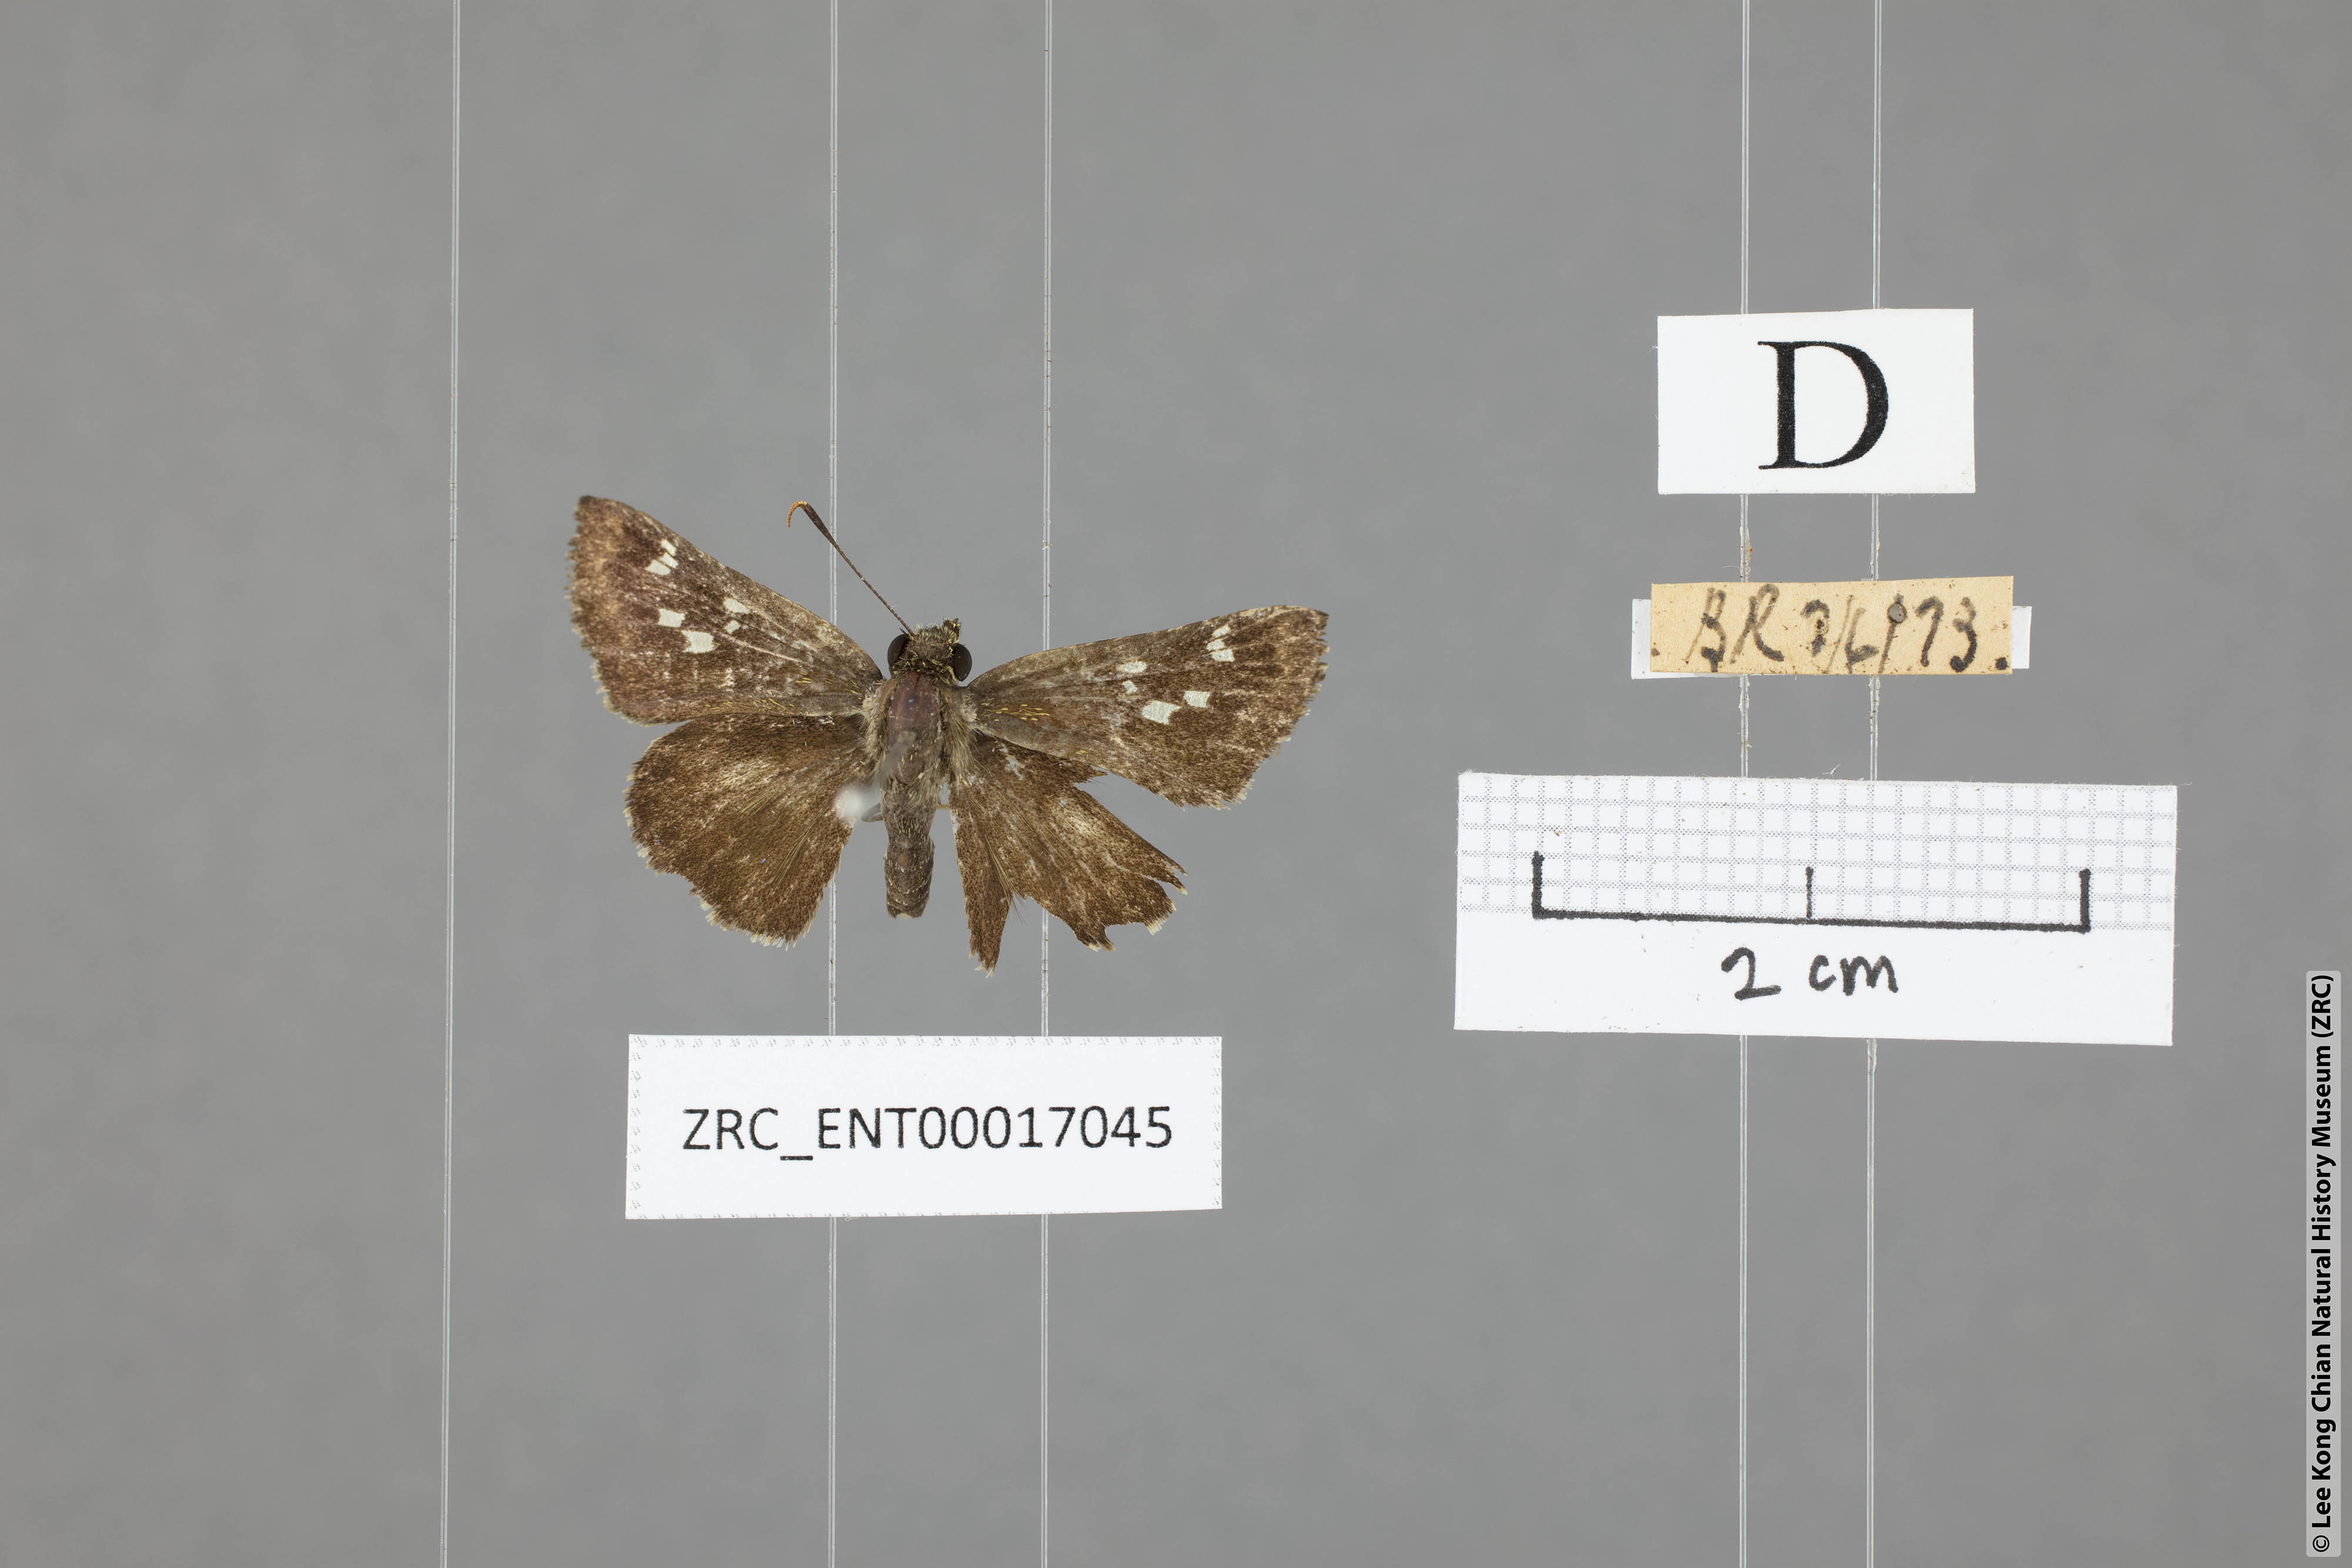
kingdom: Animalia
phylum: Arthropoda
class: Insecta
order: Lepidoptera
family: Hesperiidae
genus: Halpe
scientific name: Halpe porus
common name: Moore's ace
